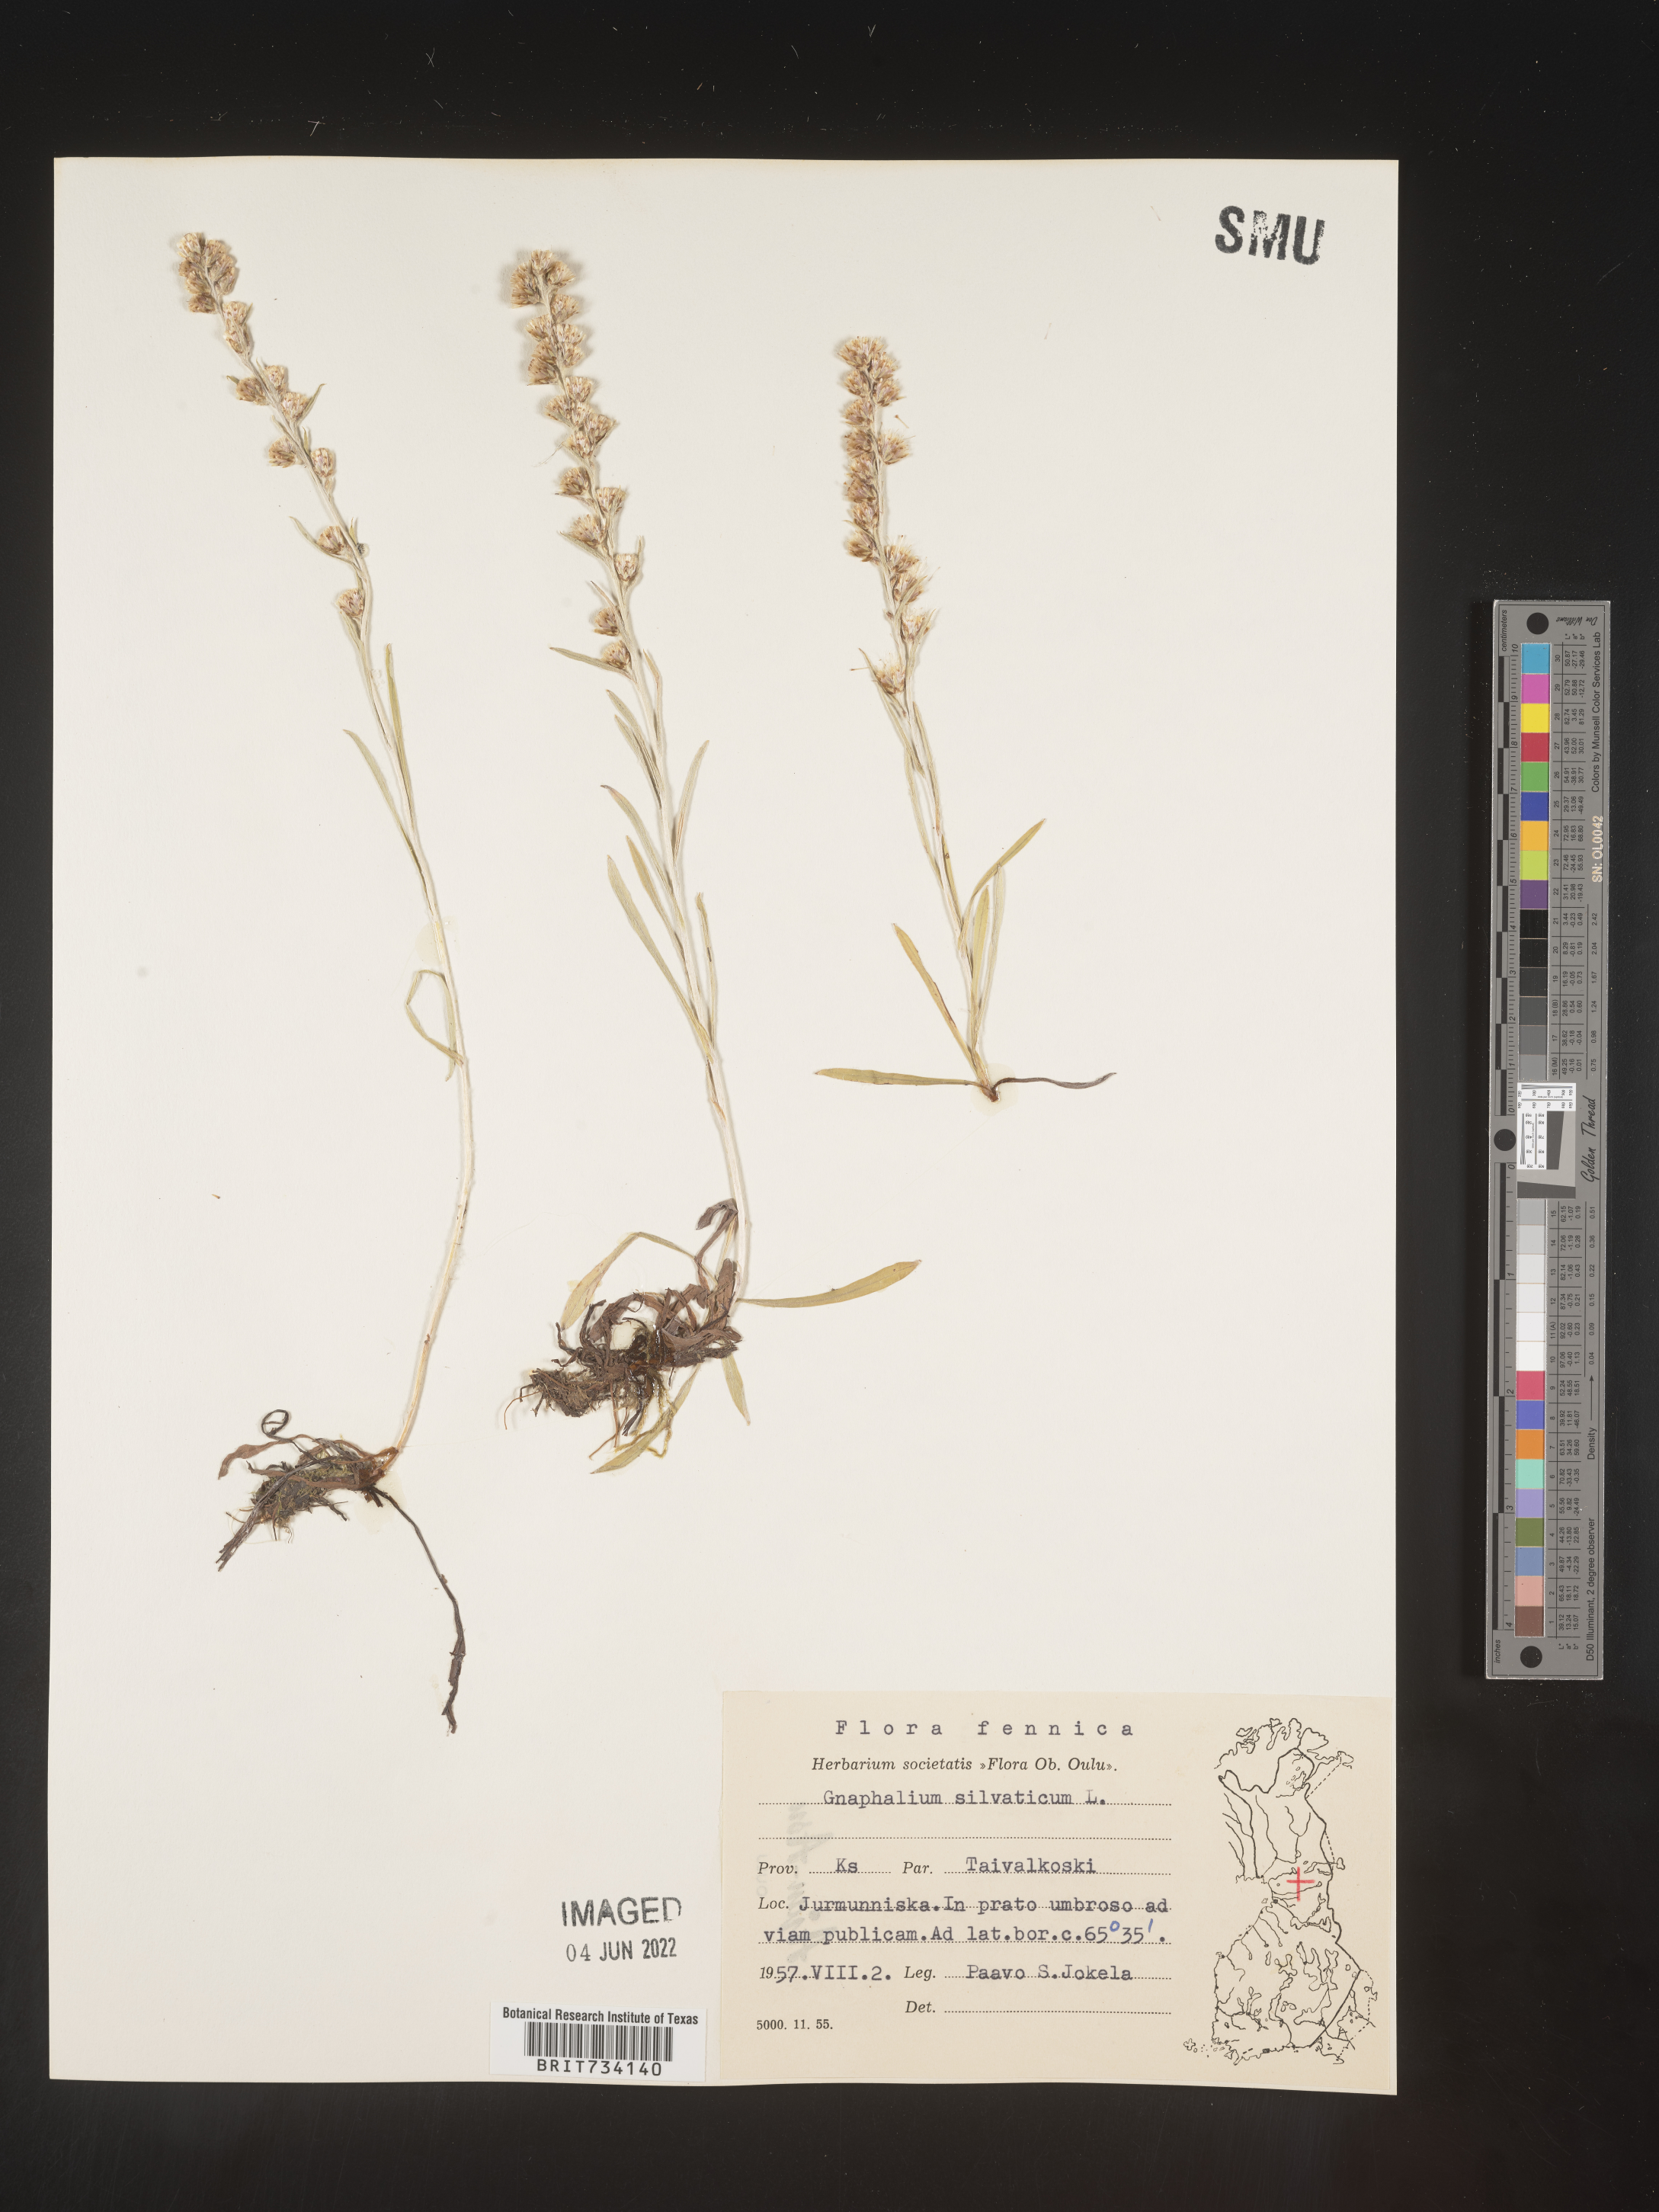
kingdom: Plantae
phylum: Tracheophyta
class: Magnoliopsida
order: Asterales
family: Asteraceae
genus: Omalotheca
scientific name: Omalotheca sylvatica
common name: Heath cudweed
